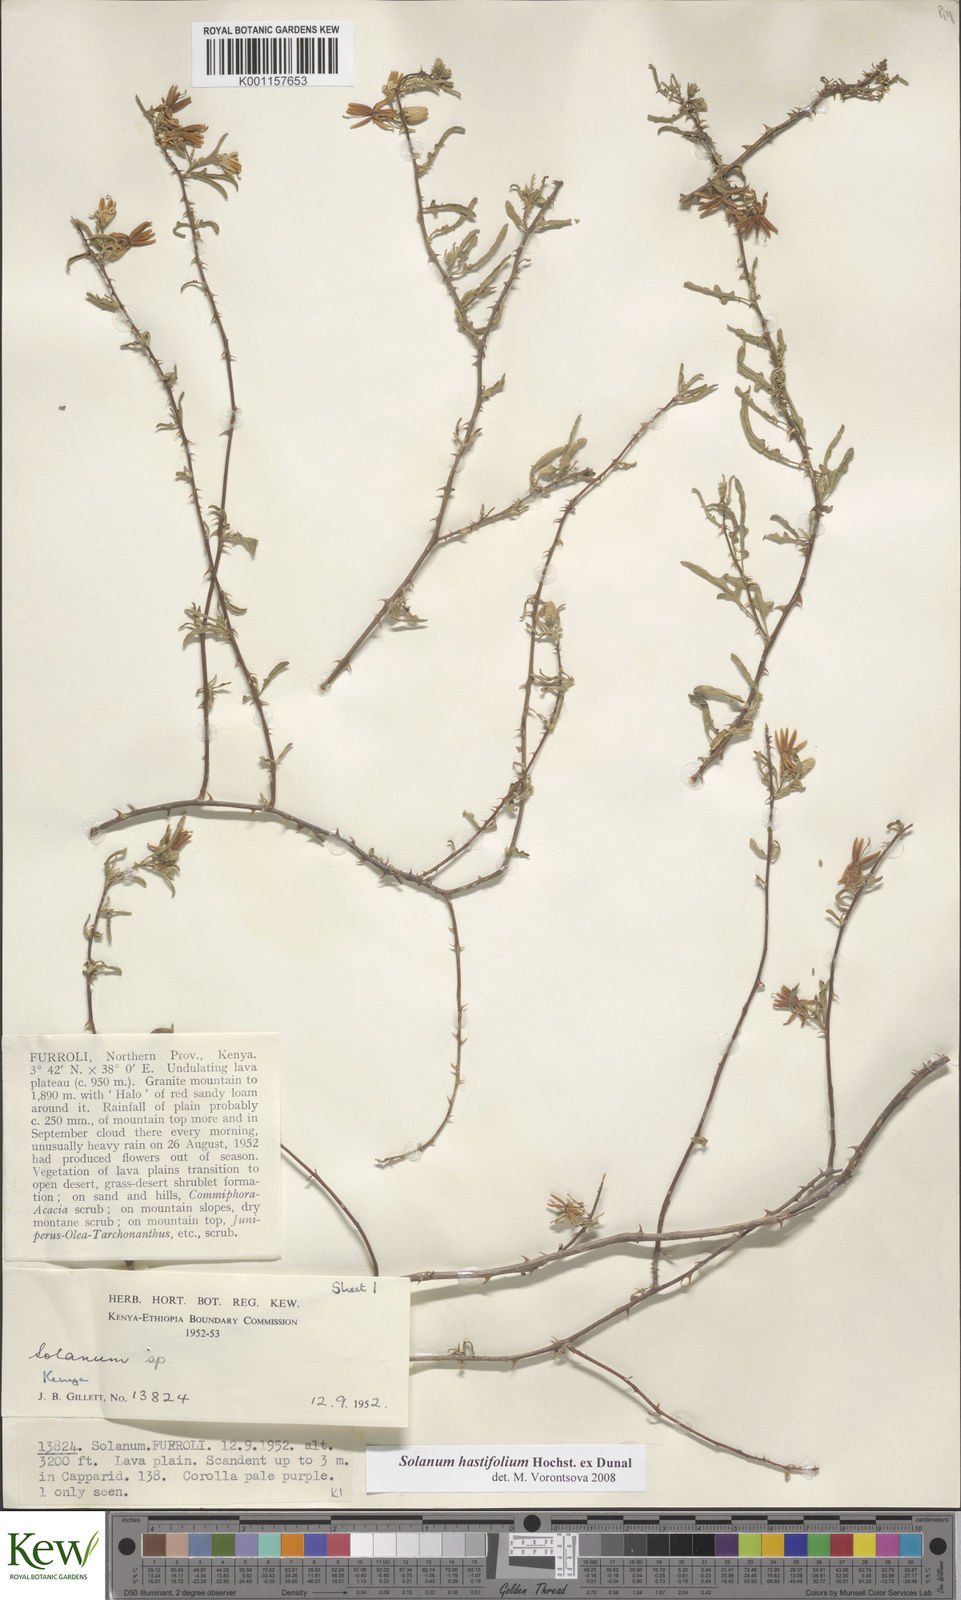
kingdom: Plantae
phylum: Tracheophyta
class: Magnoliopsida
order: Solanales
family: Solanaceae
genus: Solanum
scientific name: Solanum hastifolium
